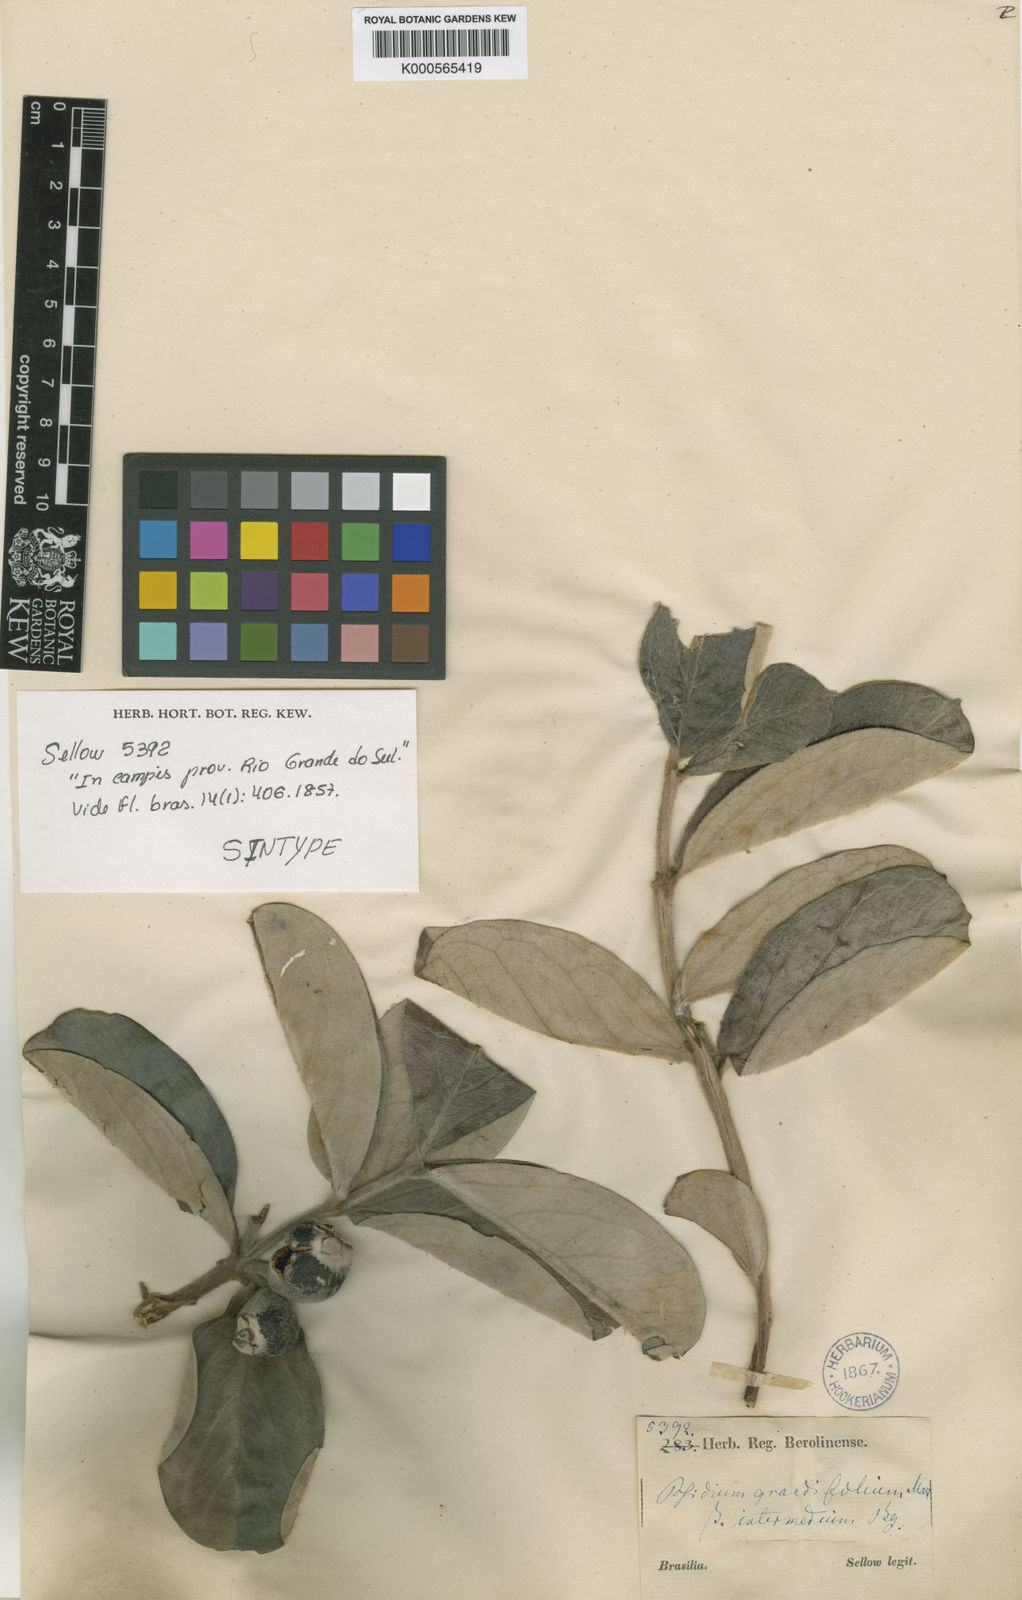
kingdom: Plantae
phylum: Tracheophyta
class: Magnoliopsida
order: Myrtales
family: Myrtaceae
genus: Psidium
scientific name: Psidium grandifolium
